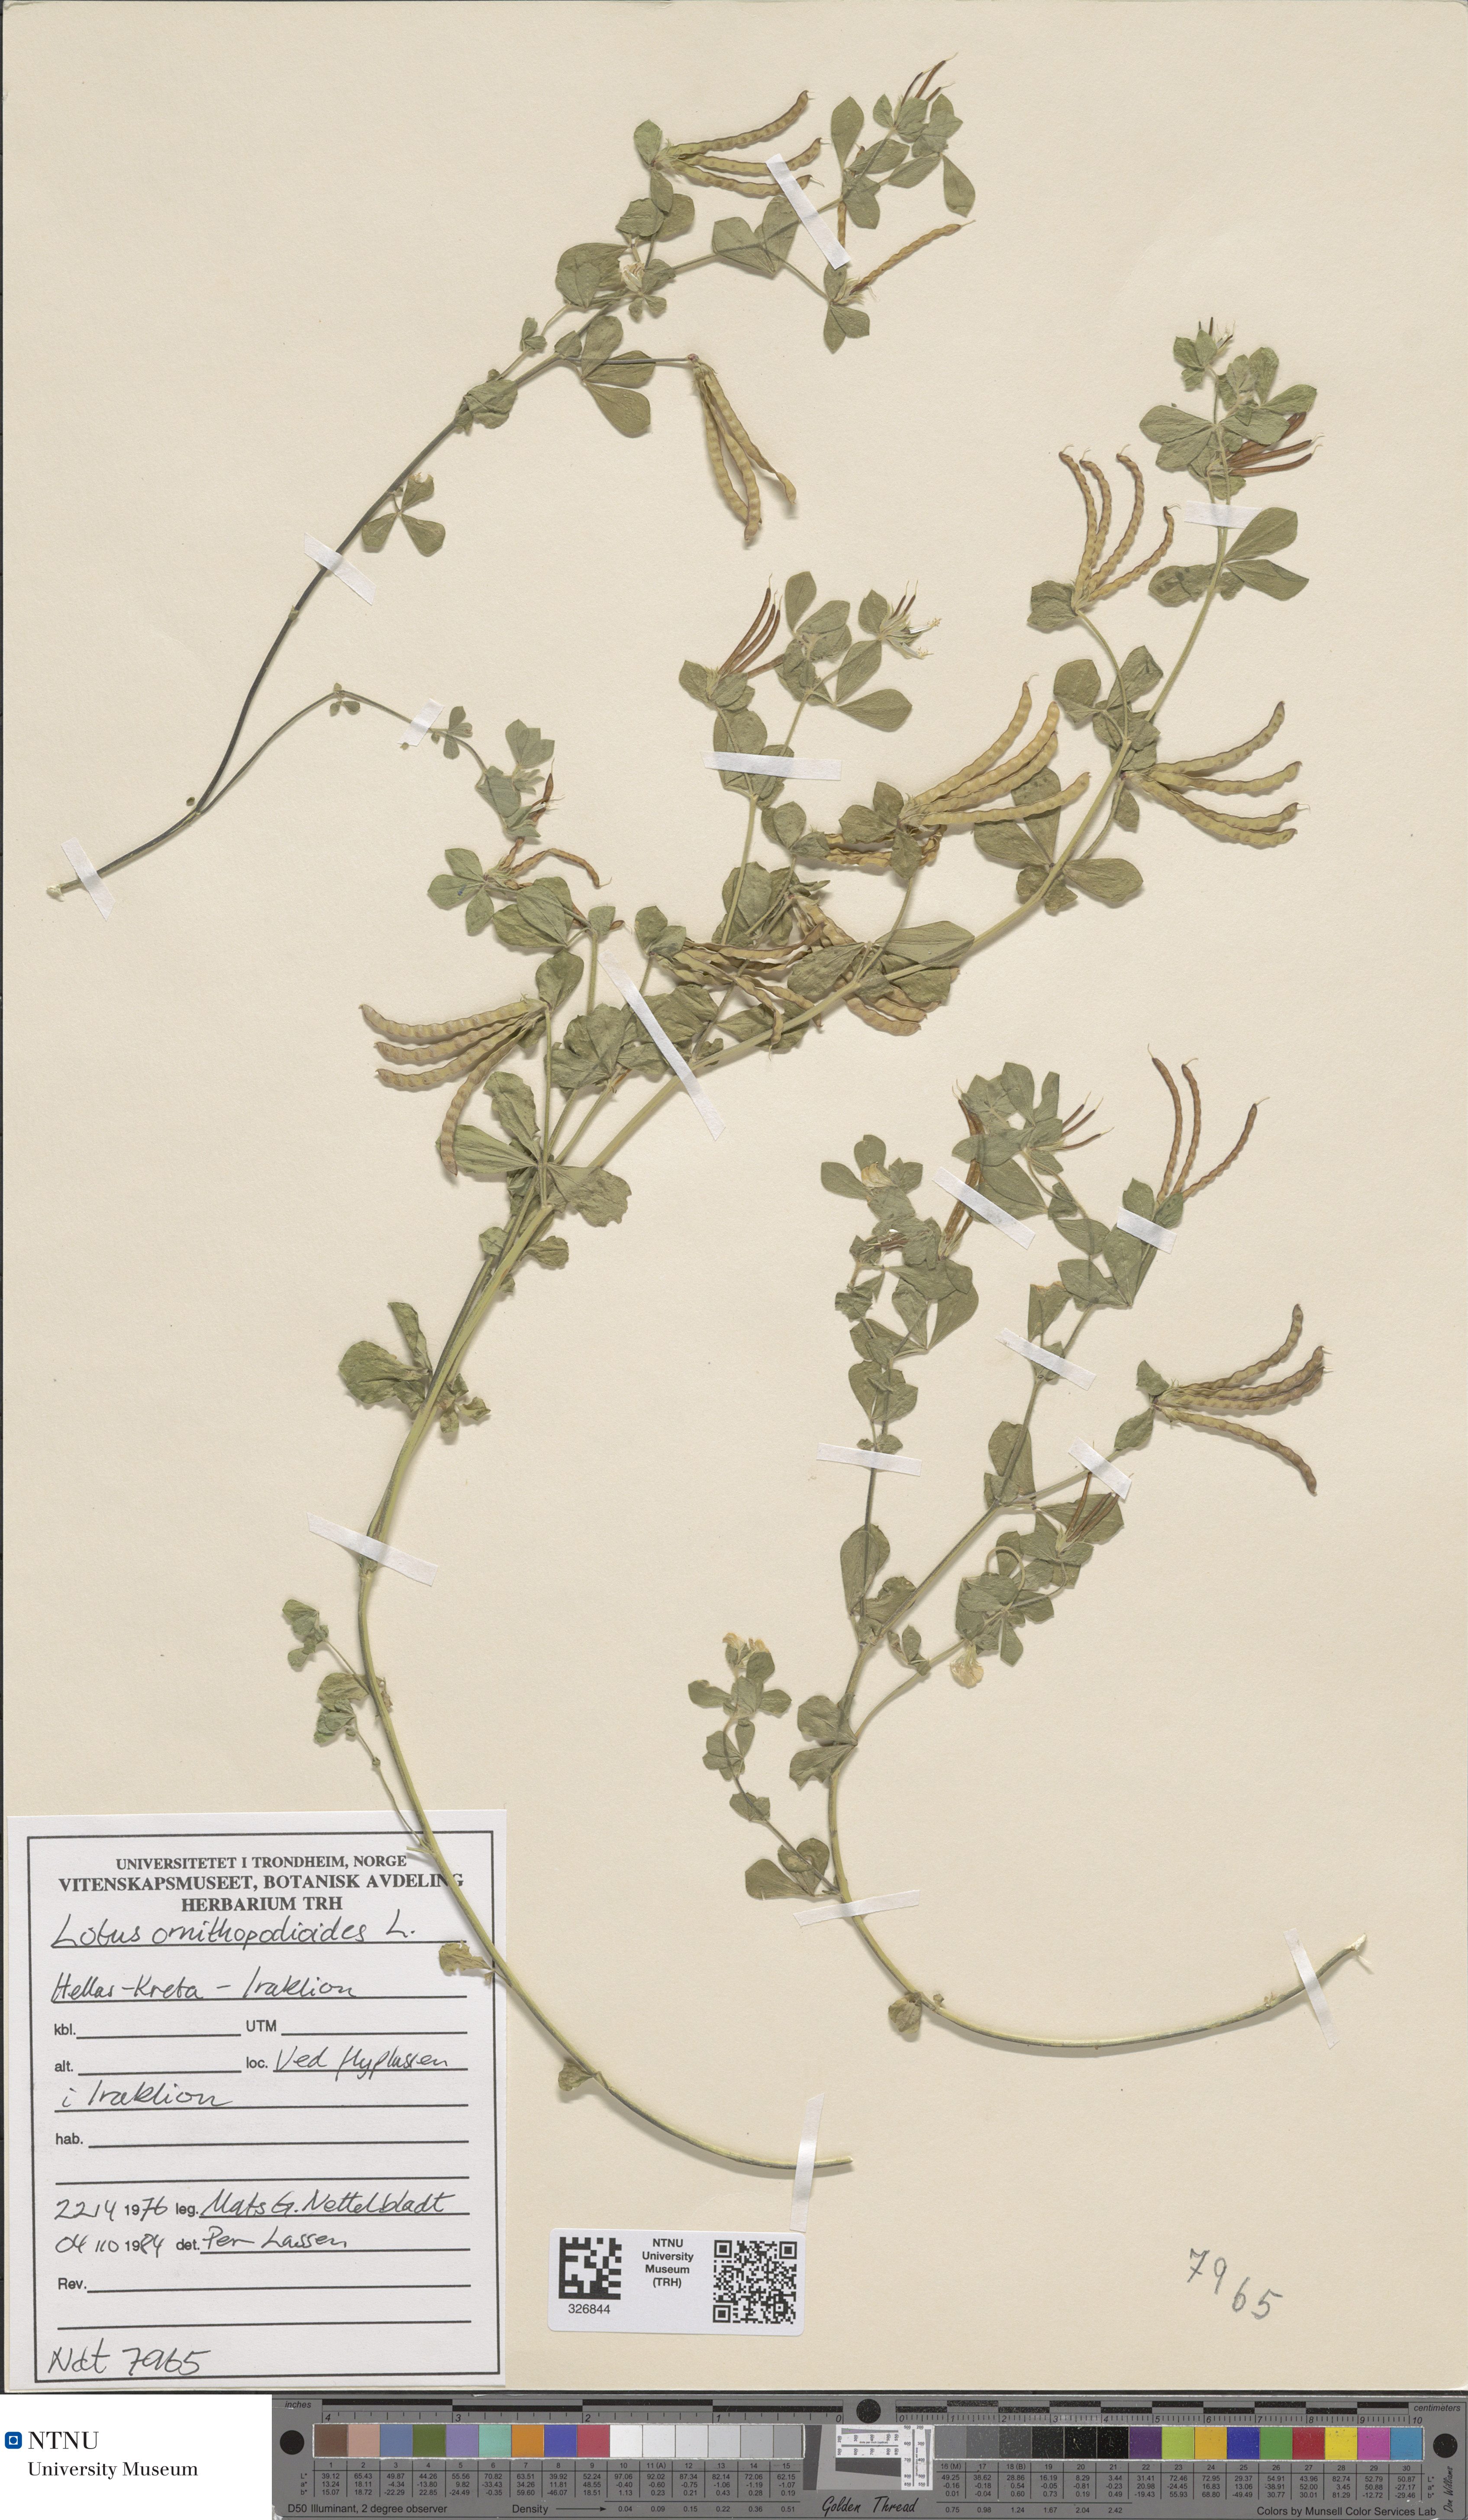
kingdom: Plantae
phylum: Tracheophyta
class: Magnoliopsida
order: Fabales
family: Fabaceae
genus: Lotus
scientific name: Lotus ornithopodioides
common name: Southern bird's-foot trefoil
